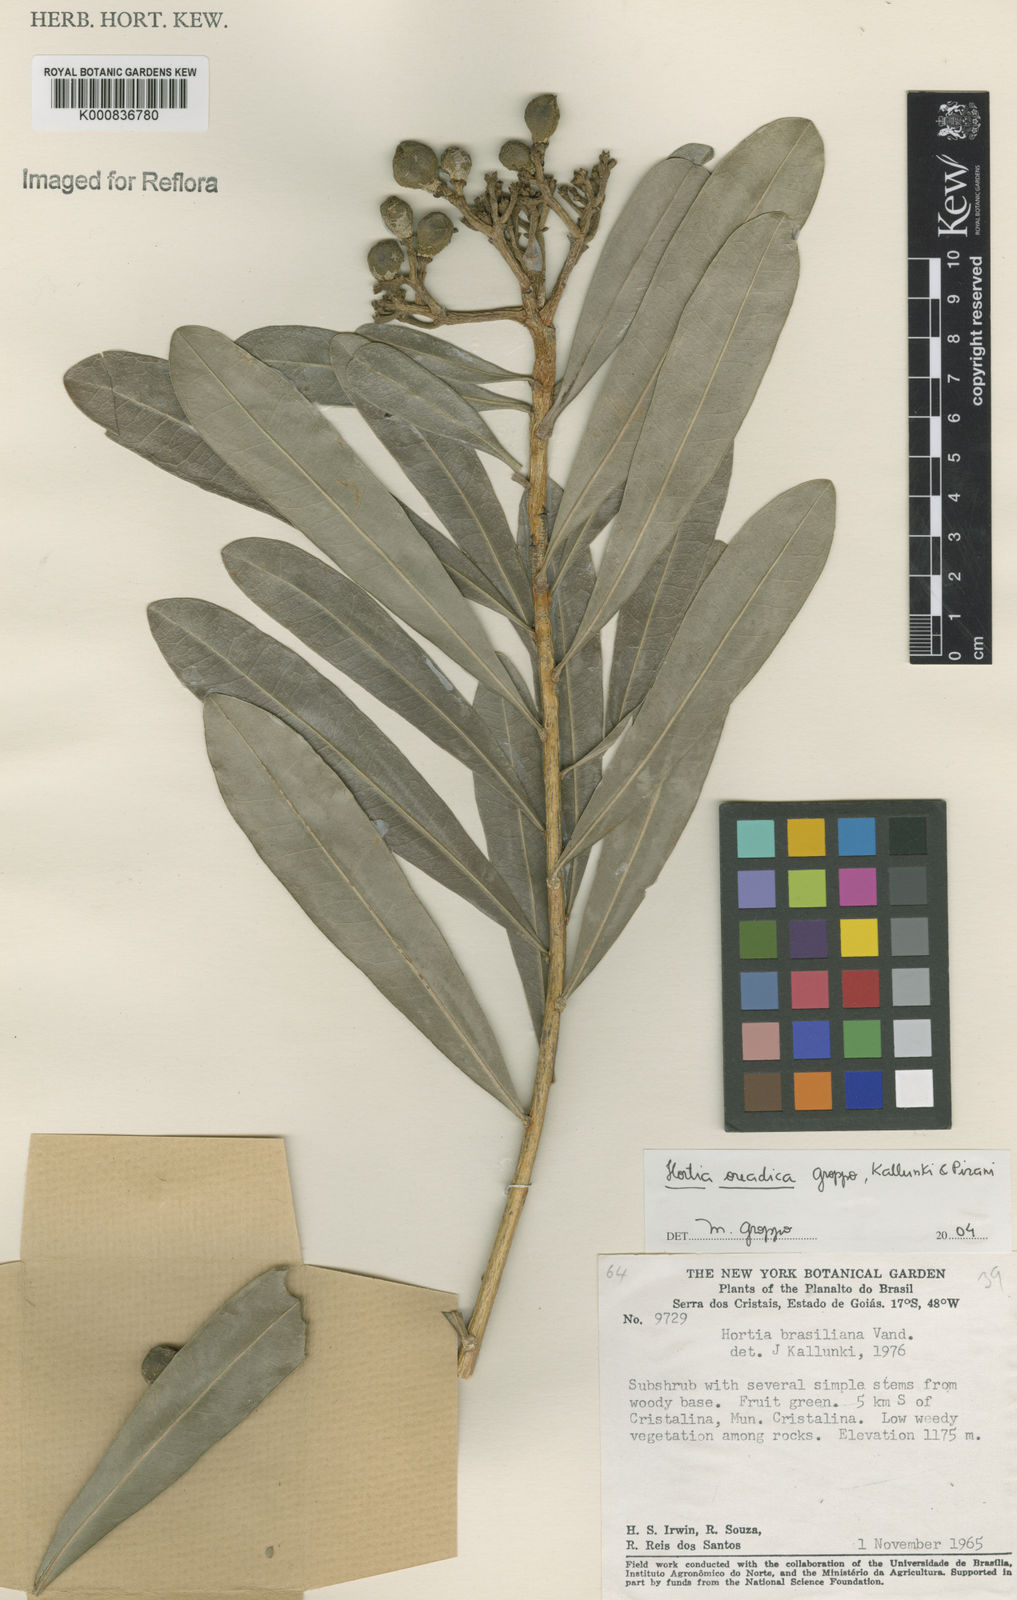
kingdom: Plantae
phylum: Tracheophyta
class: Magnoliopsida
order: Sapindales
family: Rutaceae
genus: Hortia
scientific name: Hortia brasiliana
